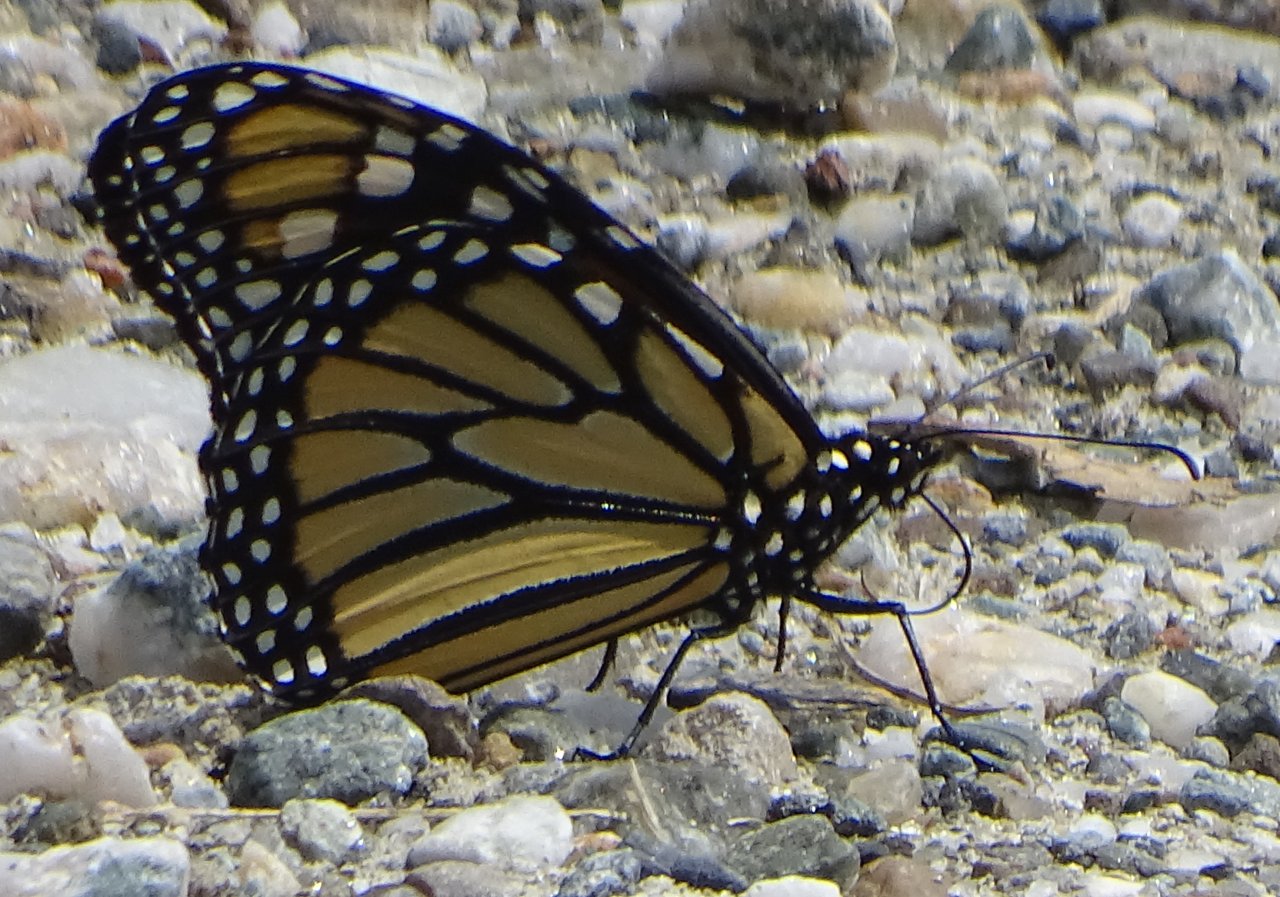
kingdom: Animalia
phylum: Arthropoda
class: Insecta
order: Lepidoptera
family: Nymphalidae
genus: Danaus
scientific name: Danaus plexippus
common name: Monarch
